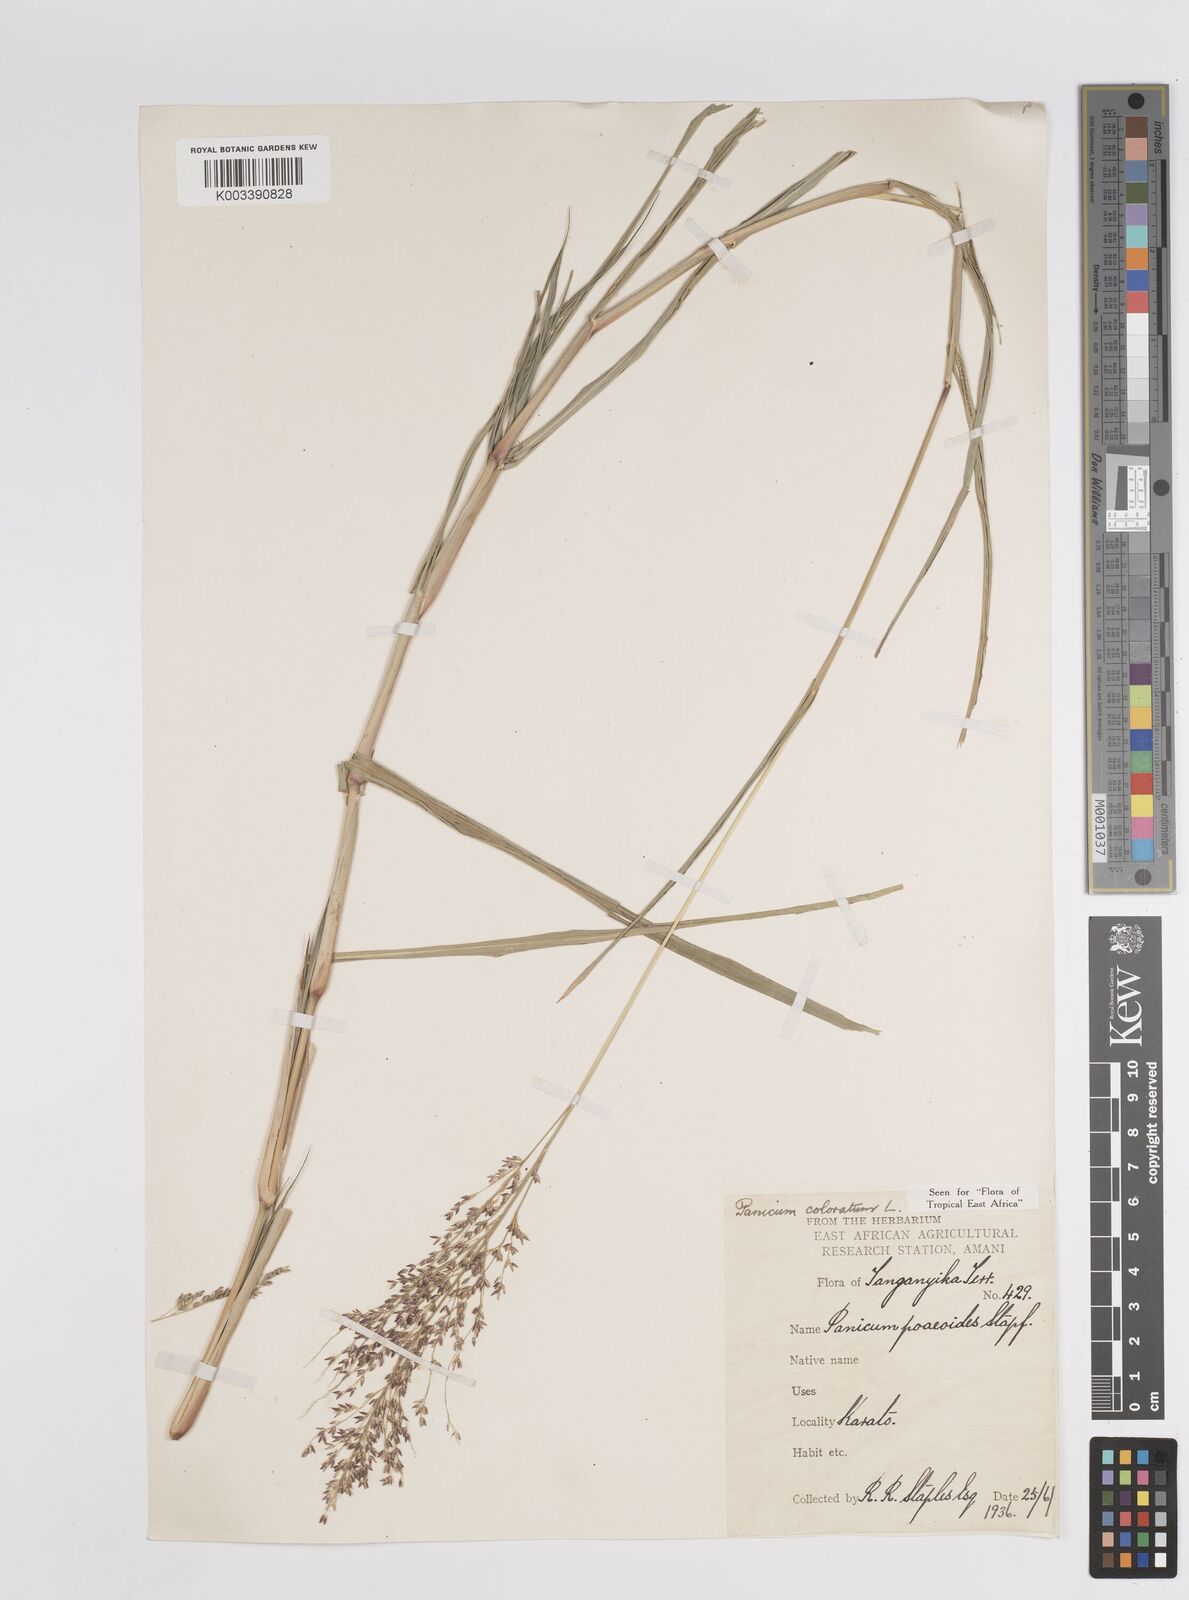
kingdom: Plantae
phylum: Tracheophyta
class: Liliopsida
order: Poales
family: Poaceae
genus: Panicum
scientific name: Panicum coloratum
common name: Kleingrass
